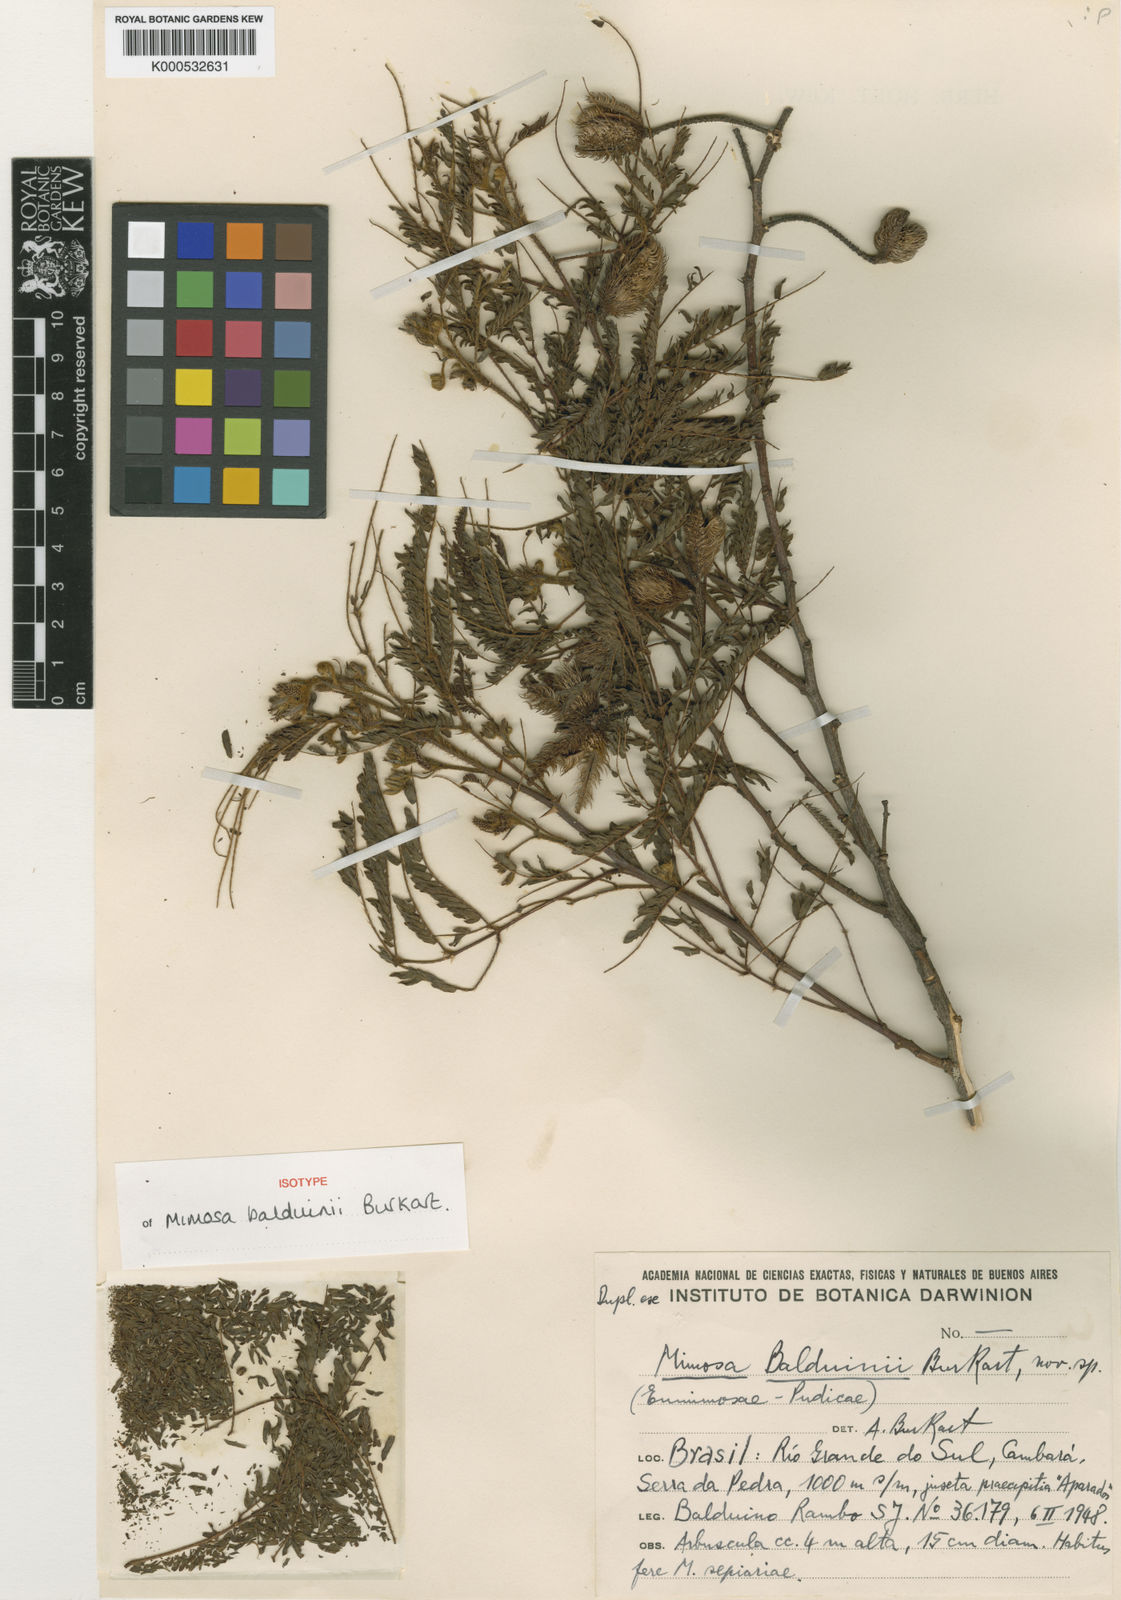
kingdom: Plantae
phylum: Tracheophyta
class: Magnoliopsida
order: Fabales
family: Fabaceae
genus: Mimosa
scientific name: Mimosa balduinii
